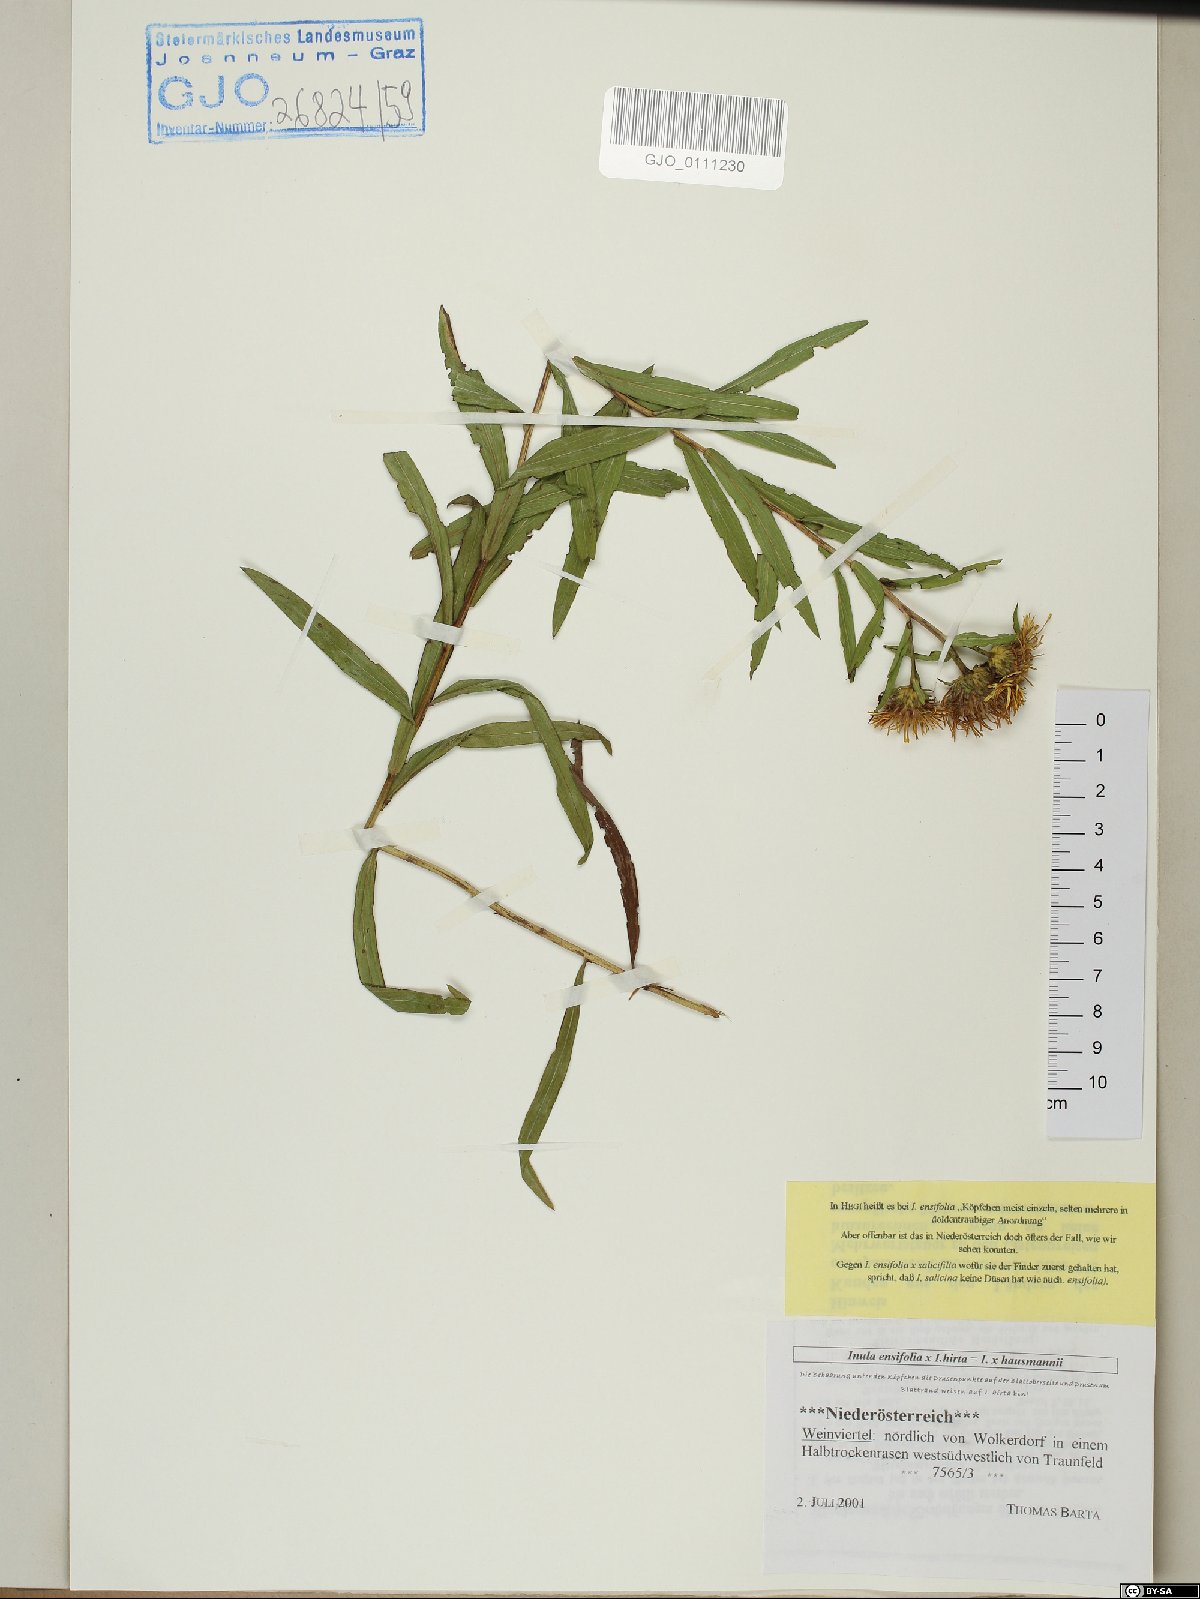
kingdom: Plantae
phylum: Tracheophyta
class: Magnoliopsida
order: Asterales
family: Asteraceae
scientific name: Asteraceae
